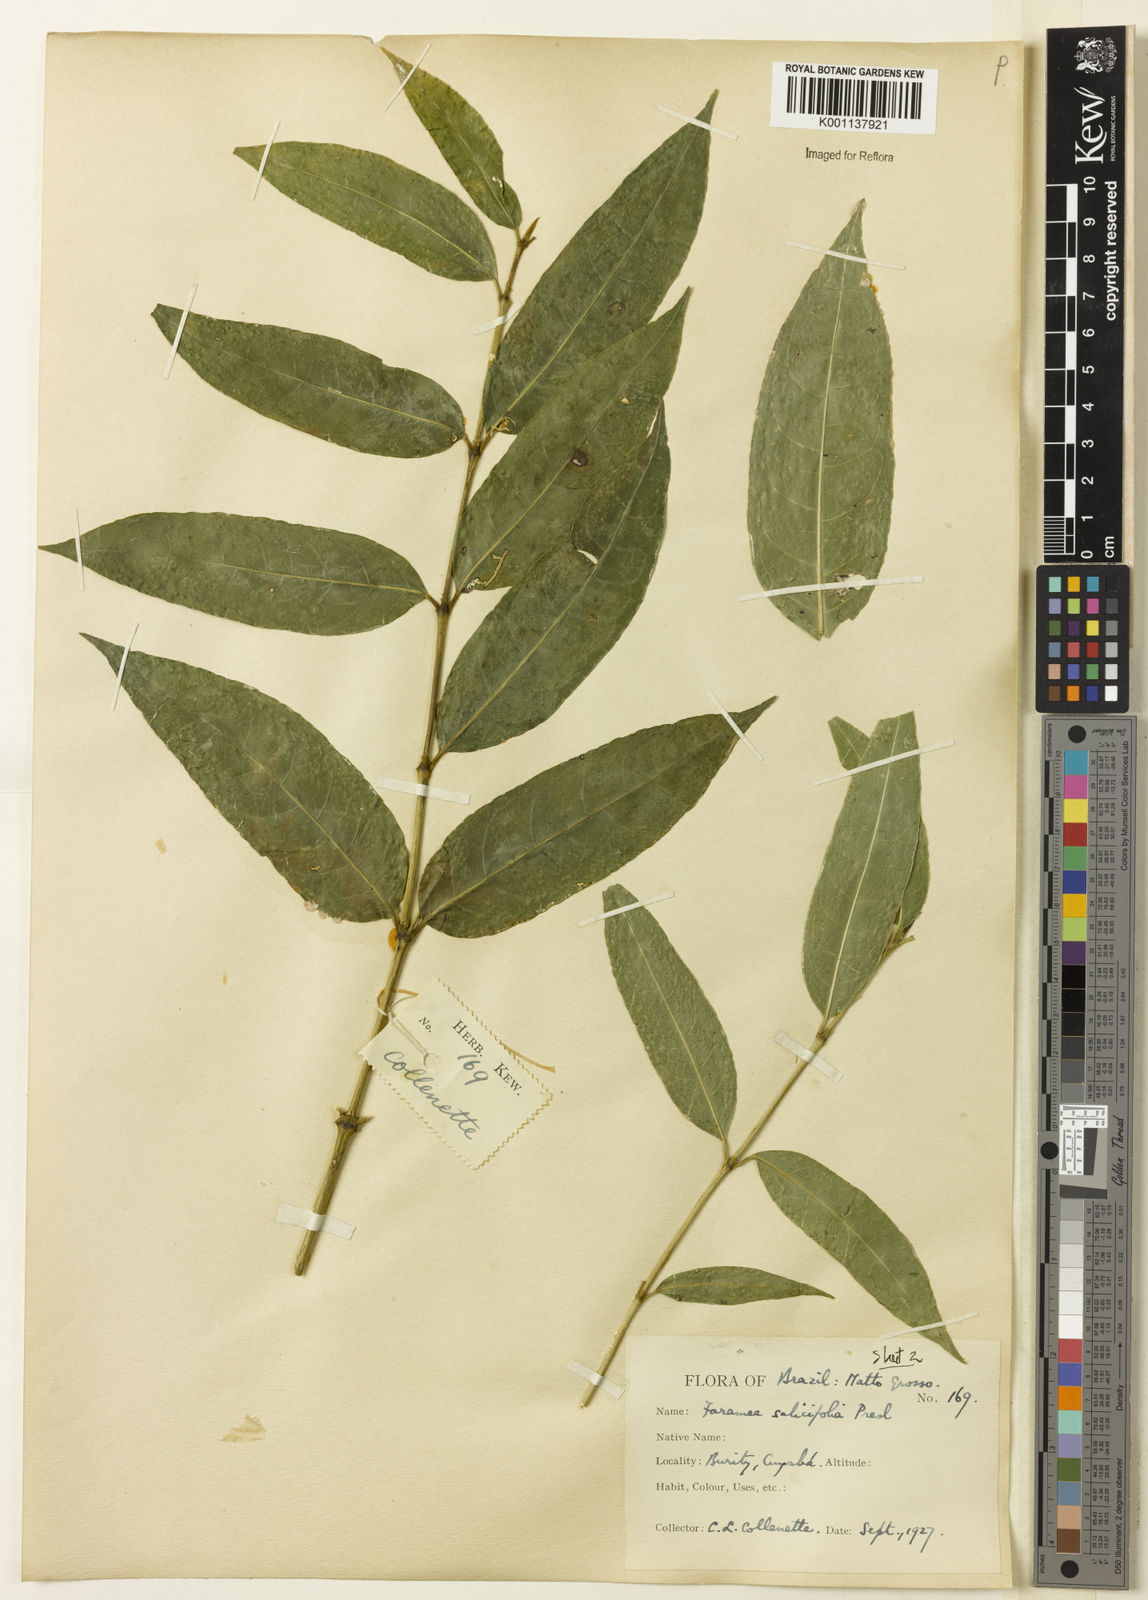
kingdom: Plantae
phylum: Tracheophyta
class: Magnoliopsida
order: Gentianales
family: Rubiaceae
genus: Faramea
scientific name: Faramea multiflora
